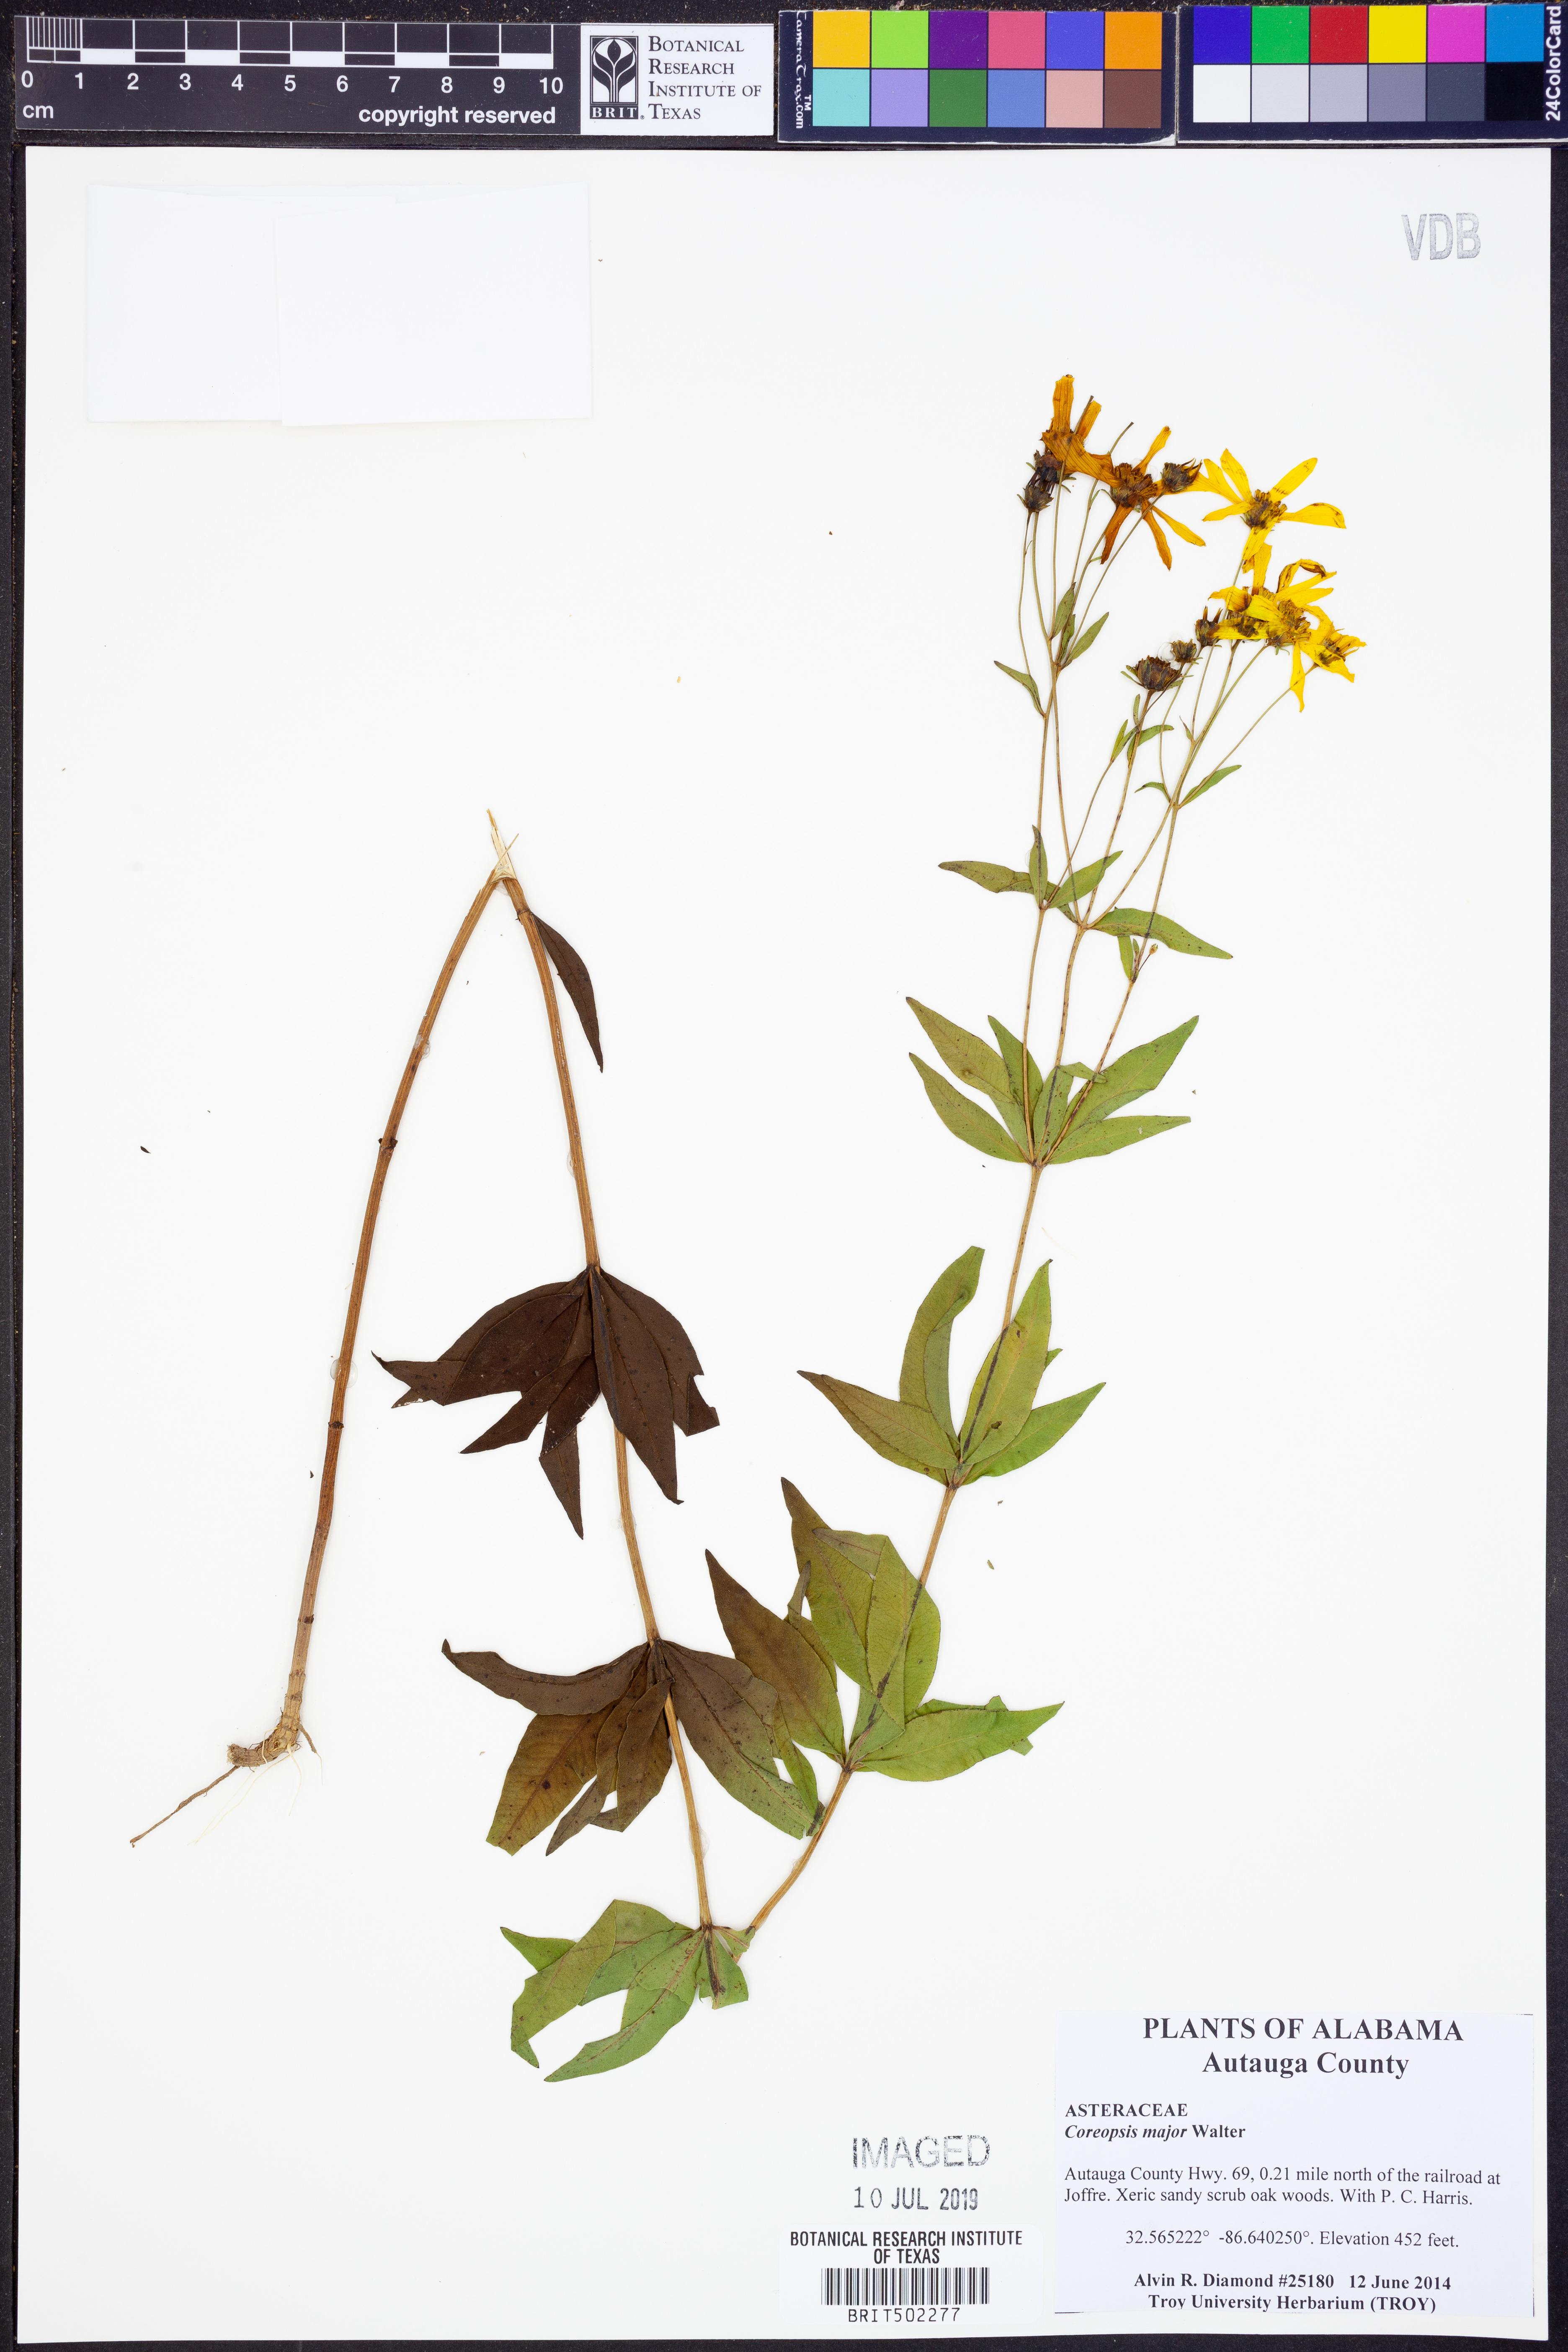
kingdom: Plantae
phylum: Tracheophyta
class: Magnoliopsida
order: Asterales
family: Asteraceae
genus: Coreopsis
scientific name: Coreopsis major
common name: Forest tickseed
